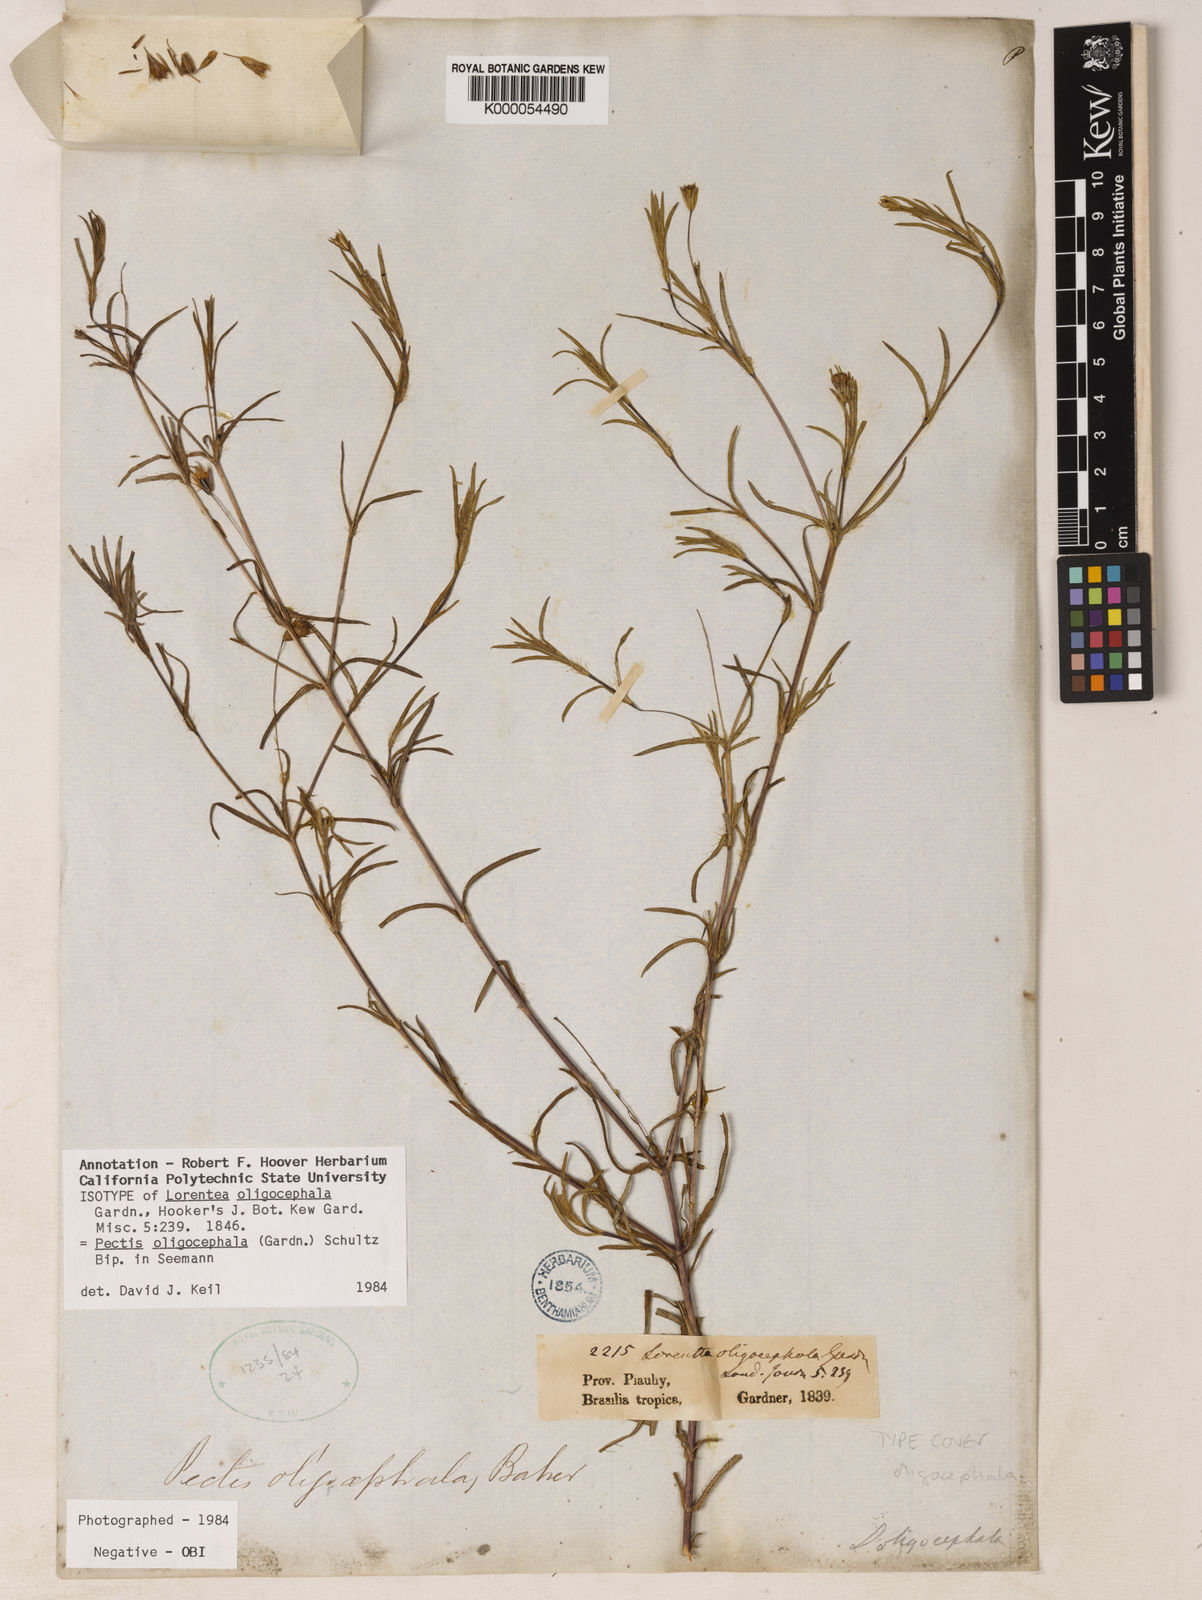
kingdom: Plantae
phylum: Tracheophyta
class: Magnoliopsida
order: Asterales
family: Asteraceae
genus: Pectis
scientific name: Pectis oligocephala
